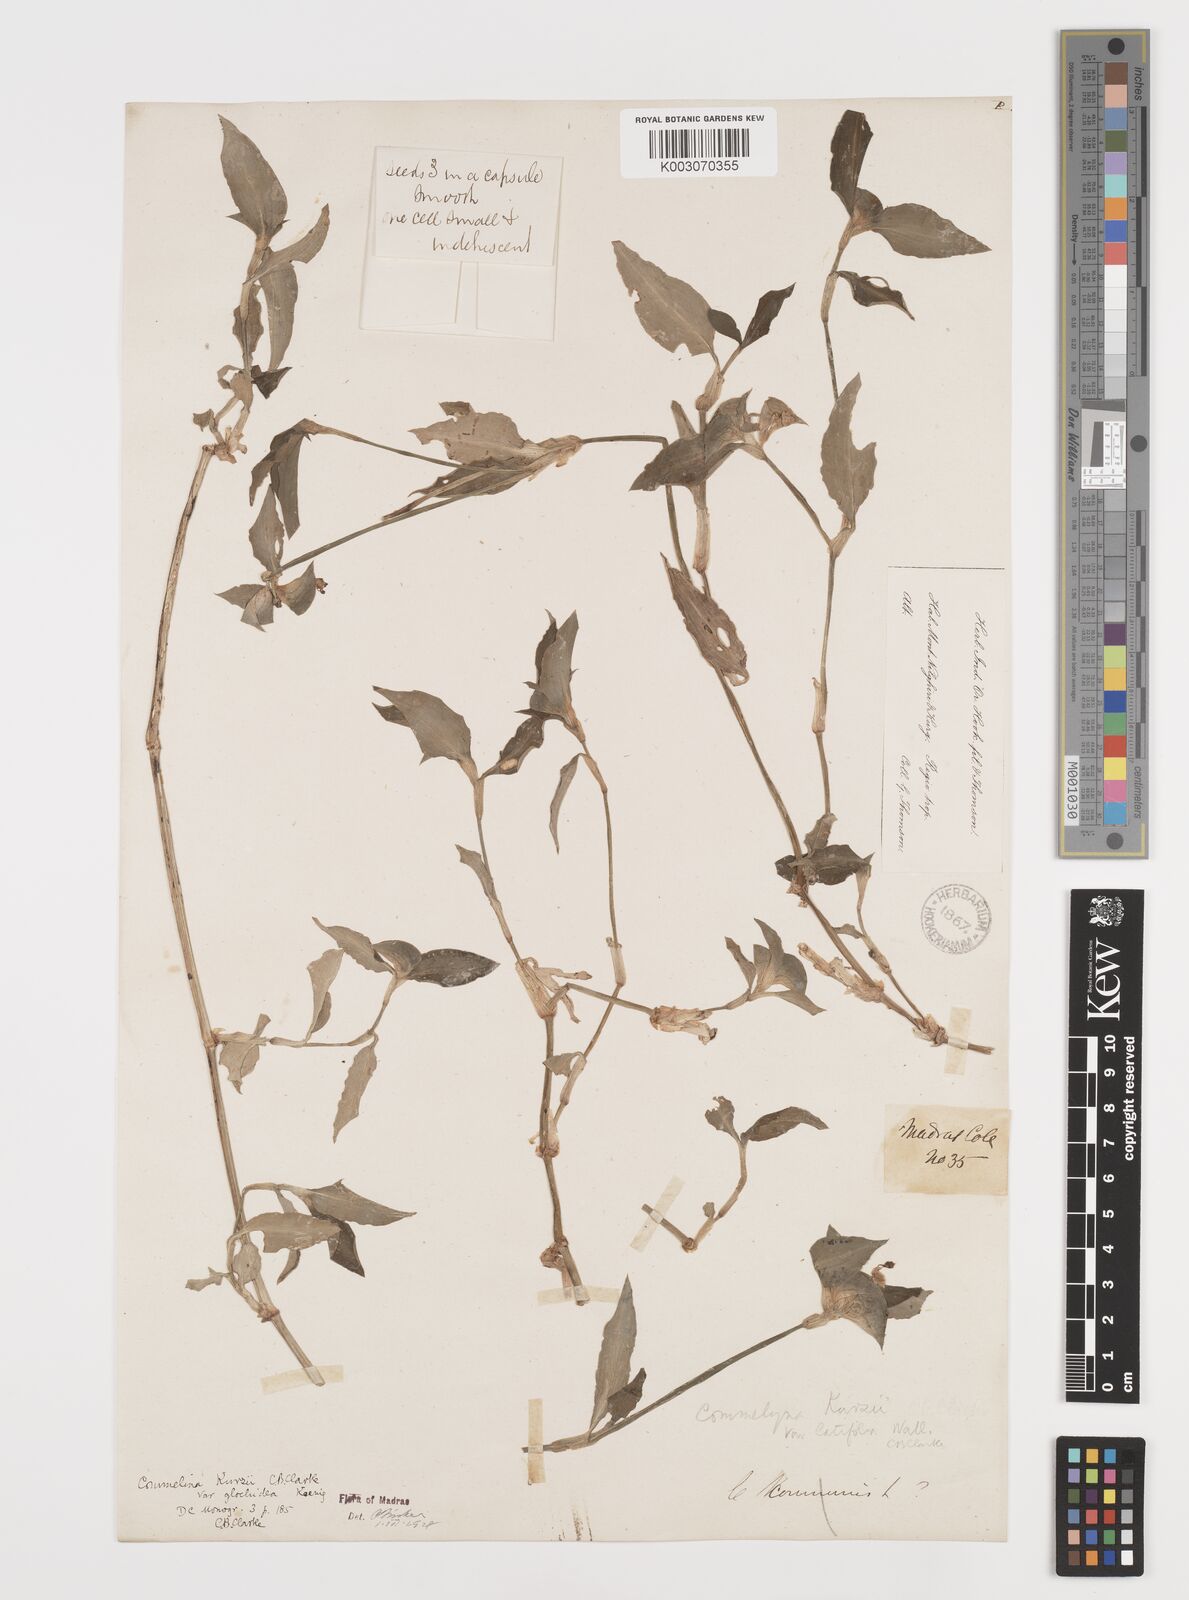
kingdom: Plantae
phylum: Tracheophyta
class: Liliopsida
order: Commelinales
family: Commelinaceae
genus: Commelina
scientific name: Commelina undulata
